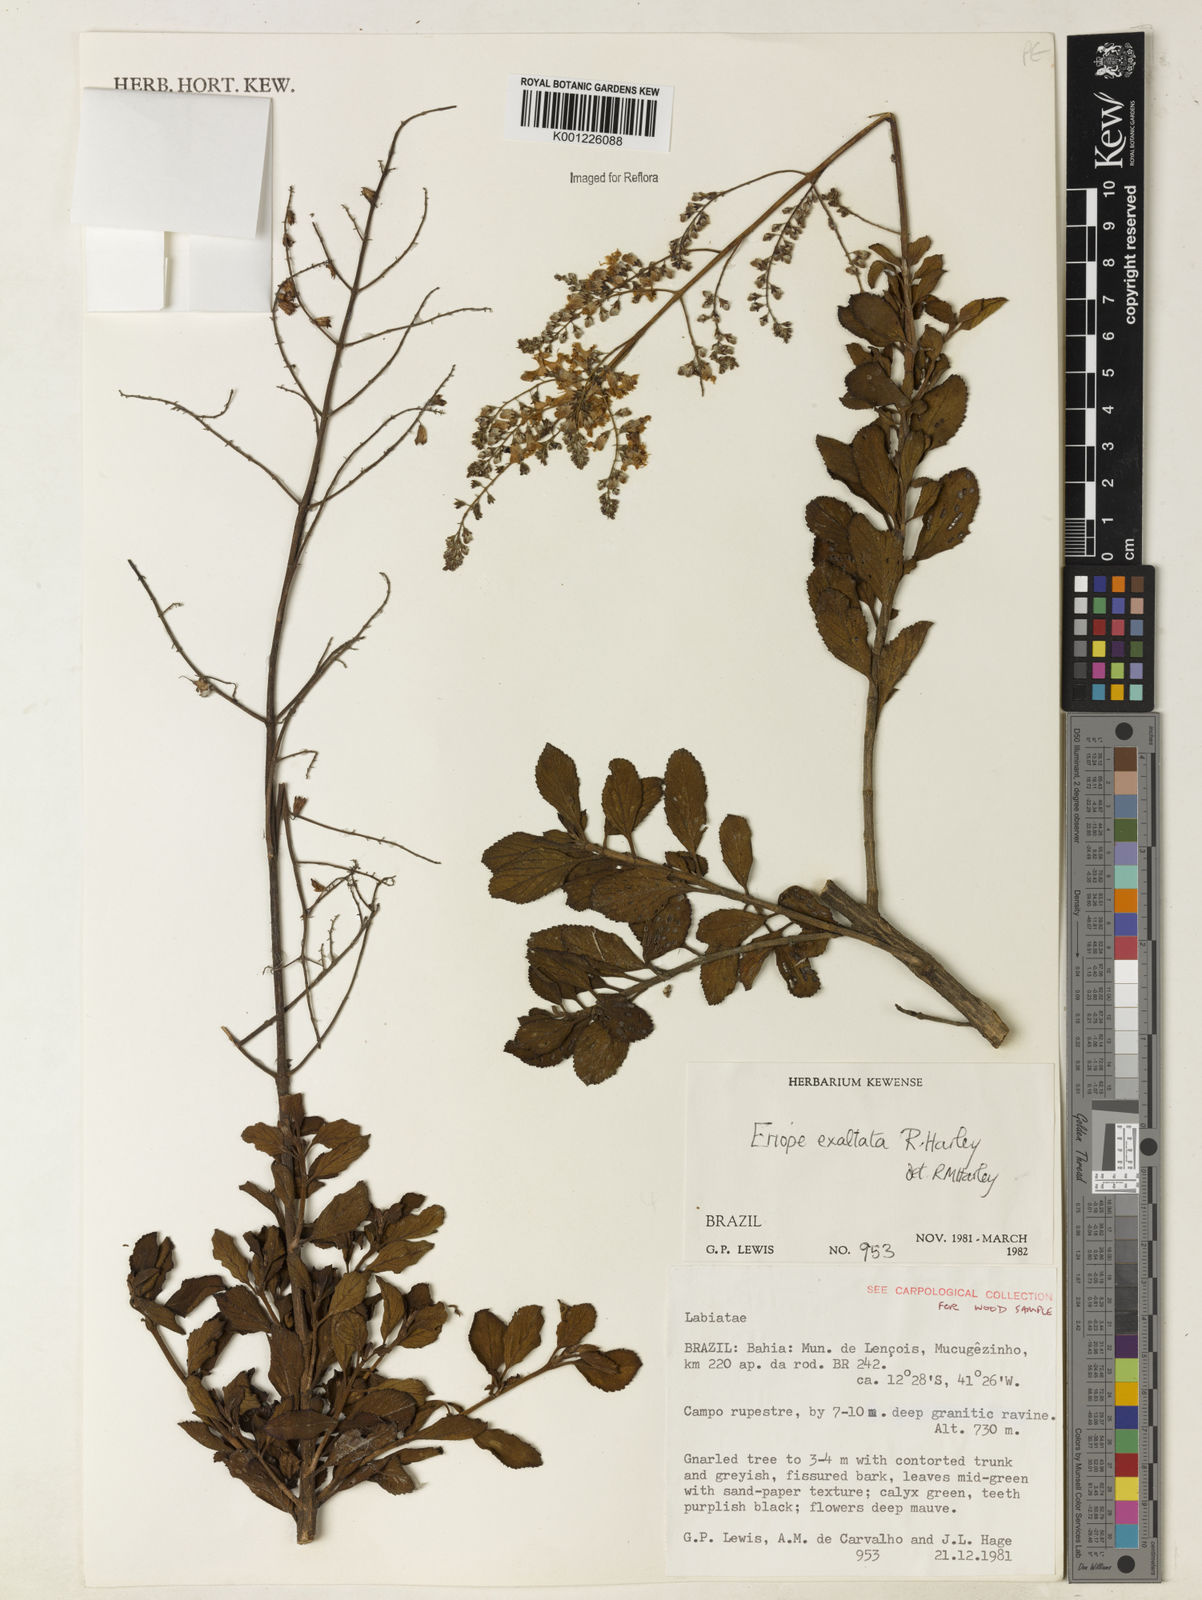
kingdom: Plantae
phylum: Tracheophyta
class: Magnoliopsida
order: Lamiales
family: Lamiaceae
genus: Eriope
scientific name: Eriope exaltata
